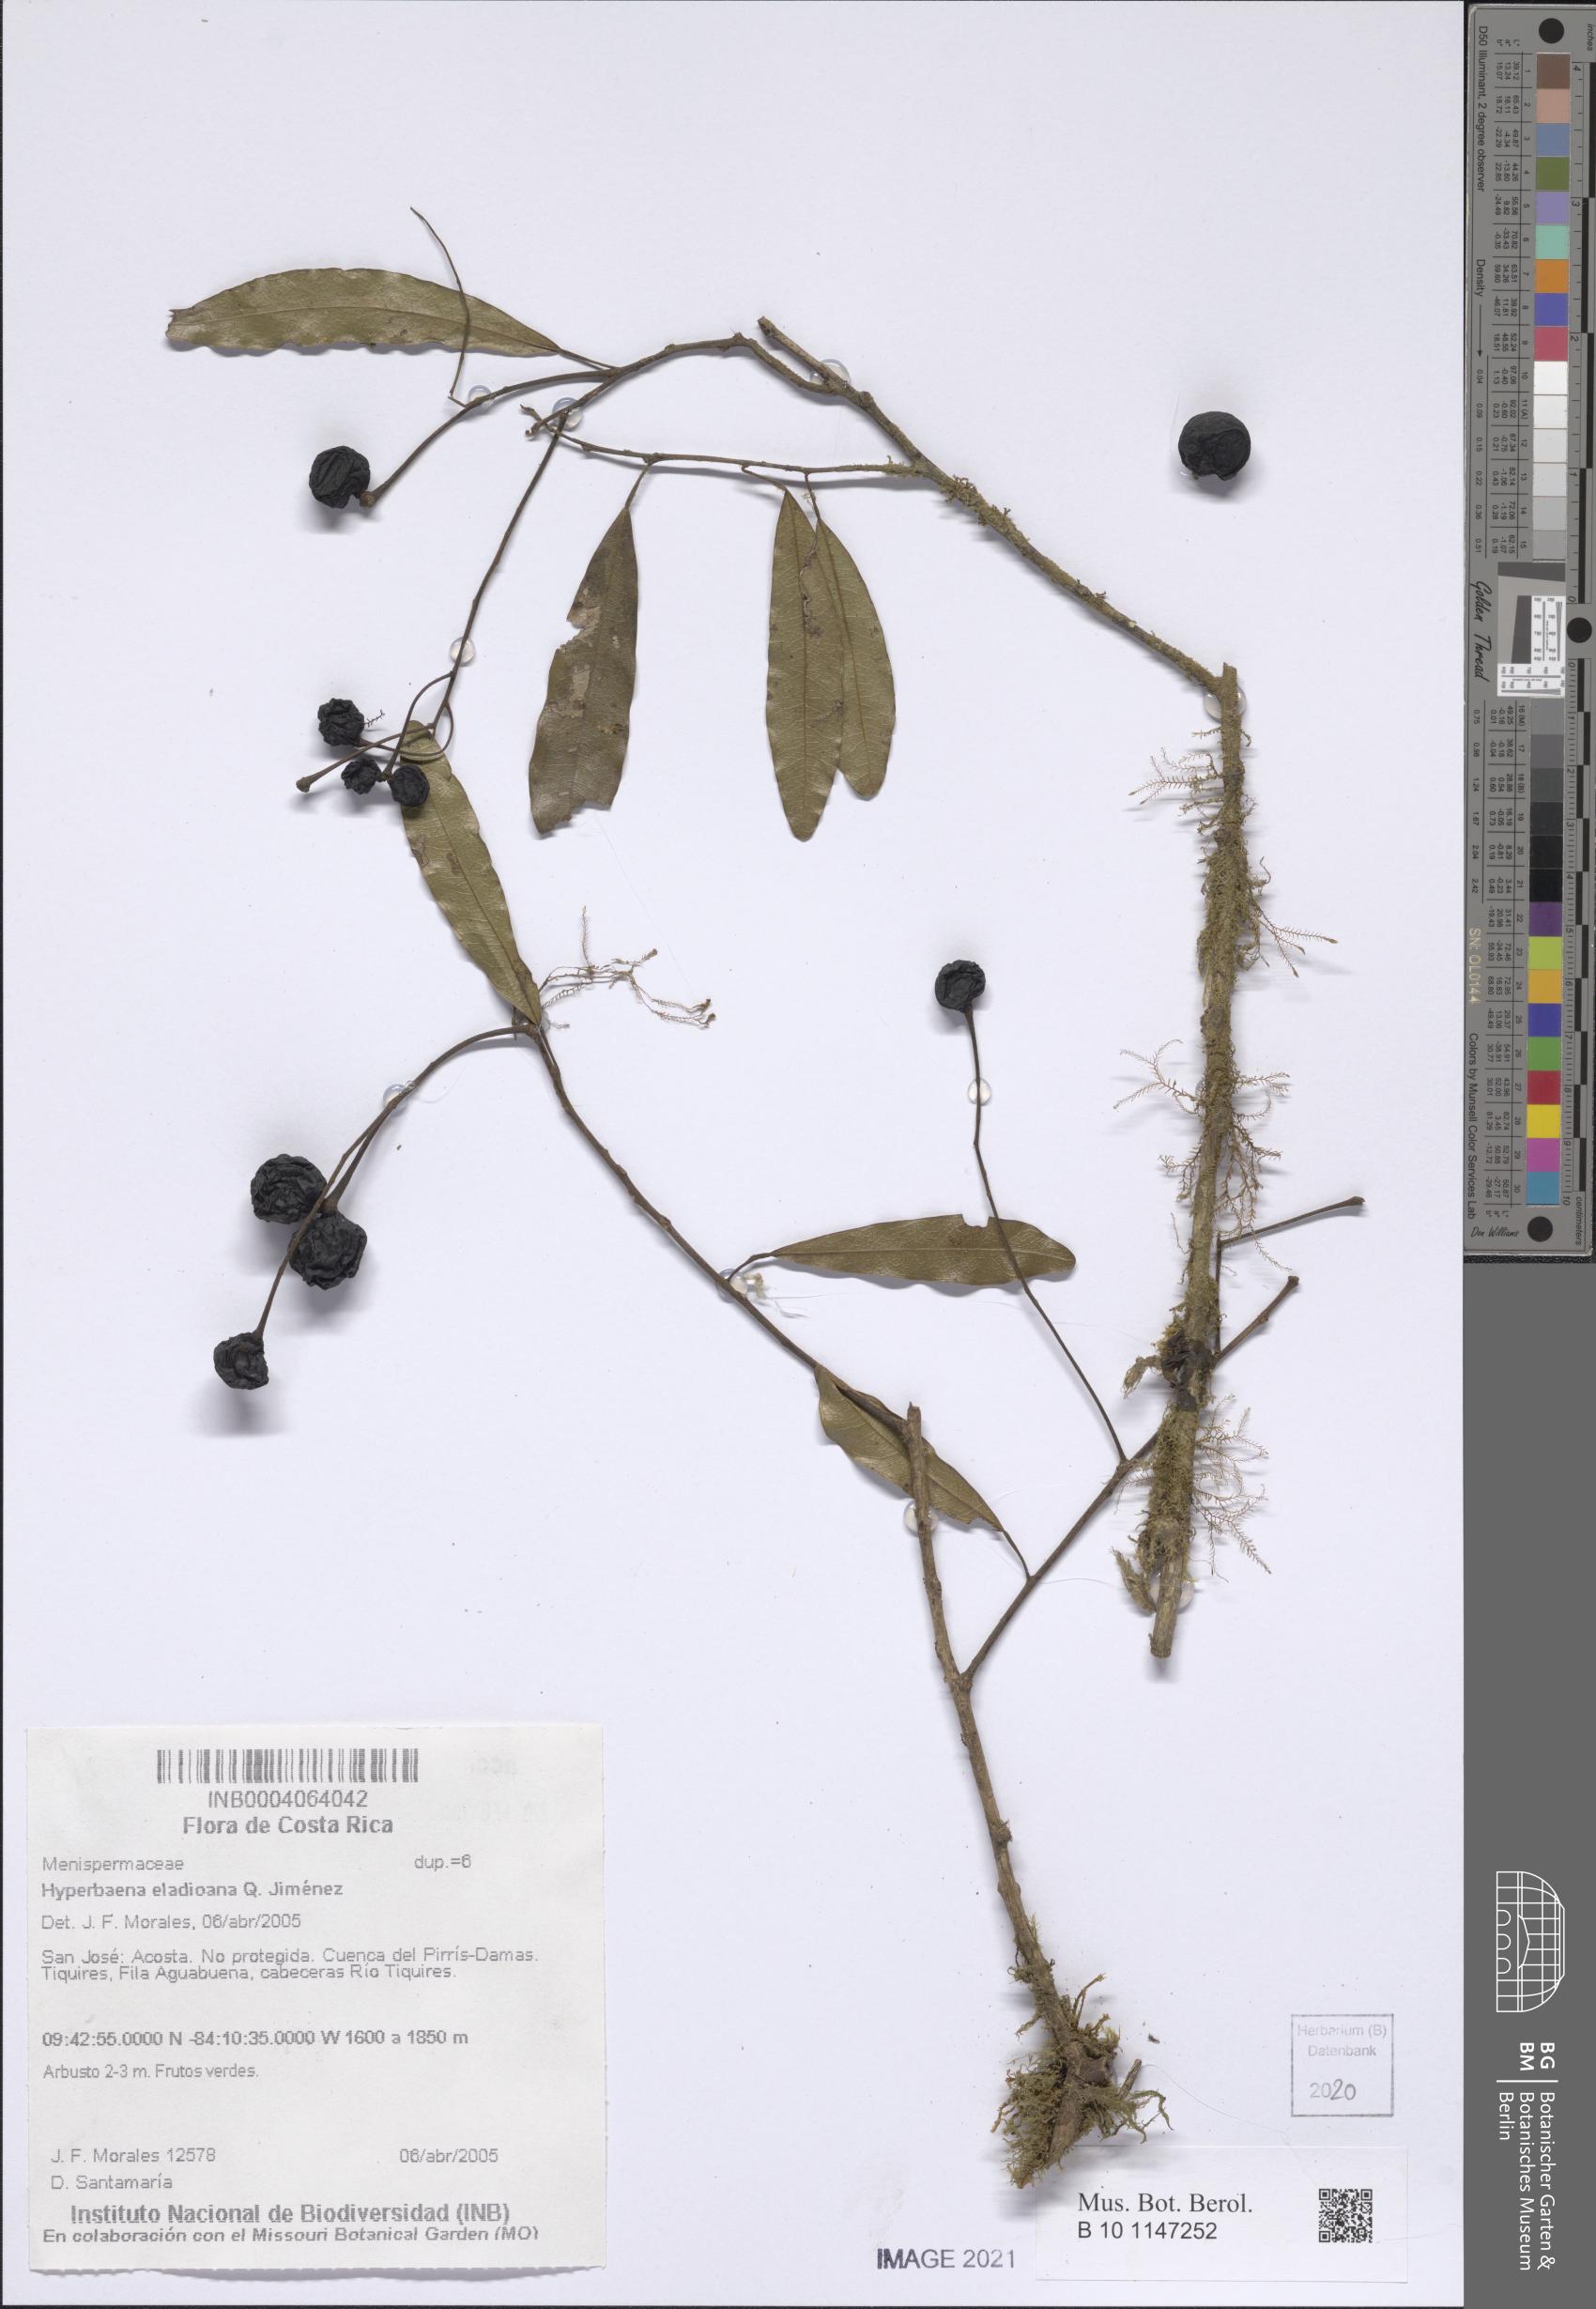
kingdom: Plantae
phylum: Tracheophyta
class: Magnoliopsida
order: Ranunculales
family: Menispermaceae
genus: Hyperbaena
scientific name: Hyperbaena eladioana
